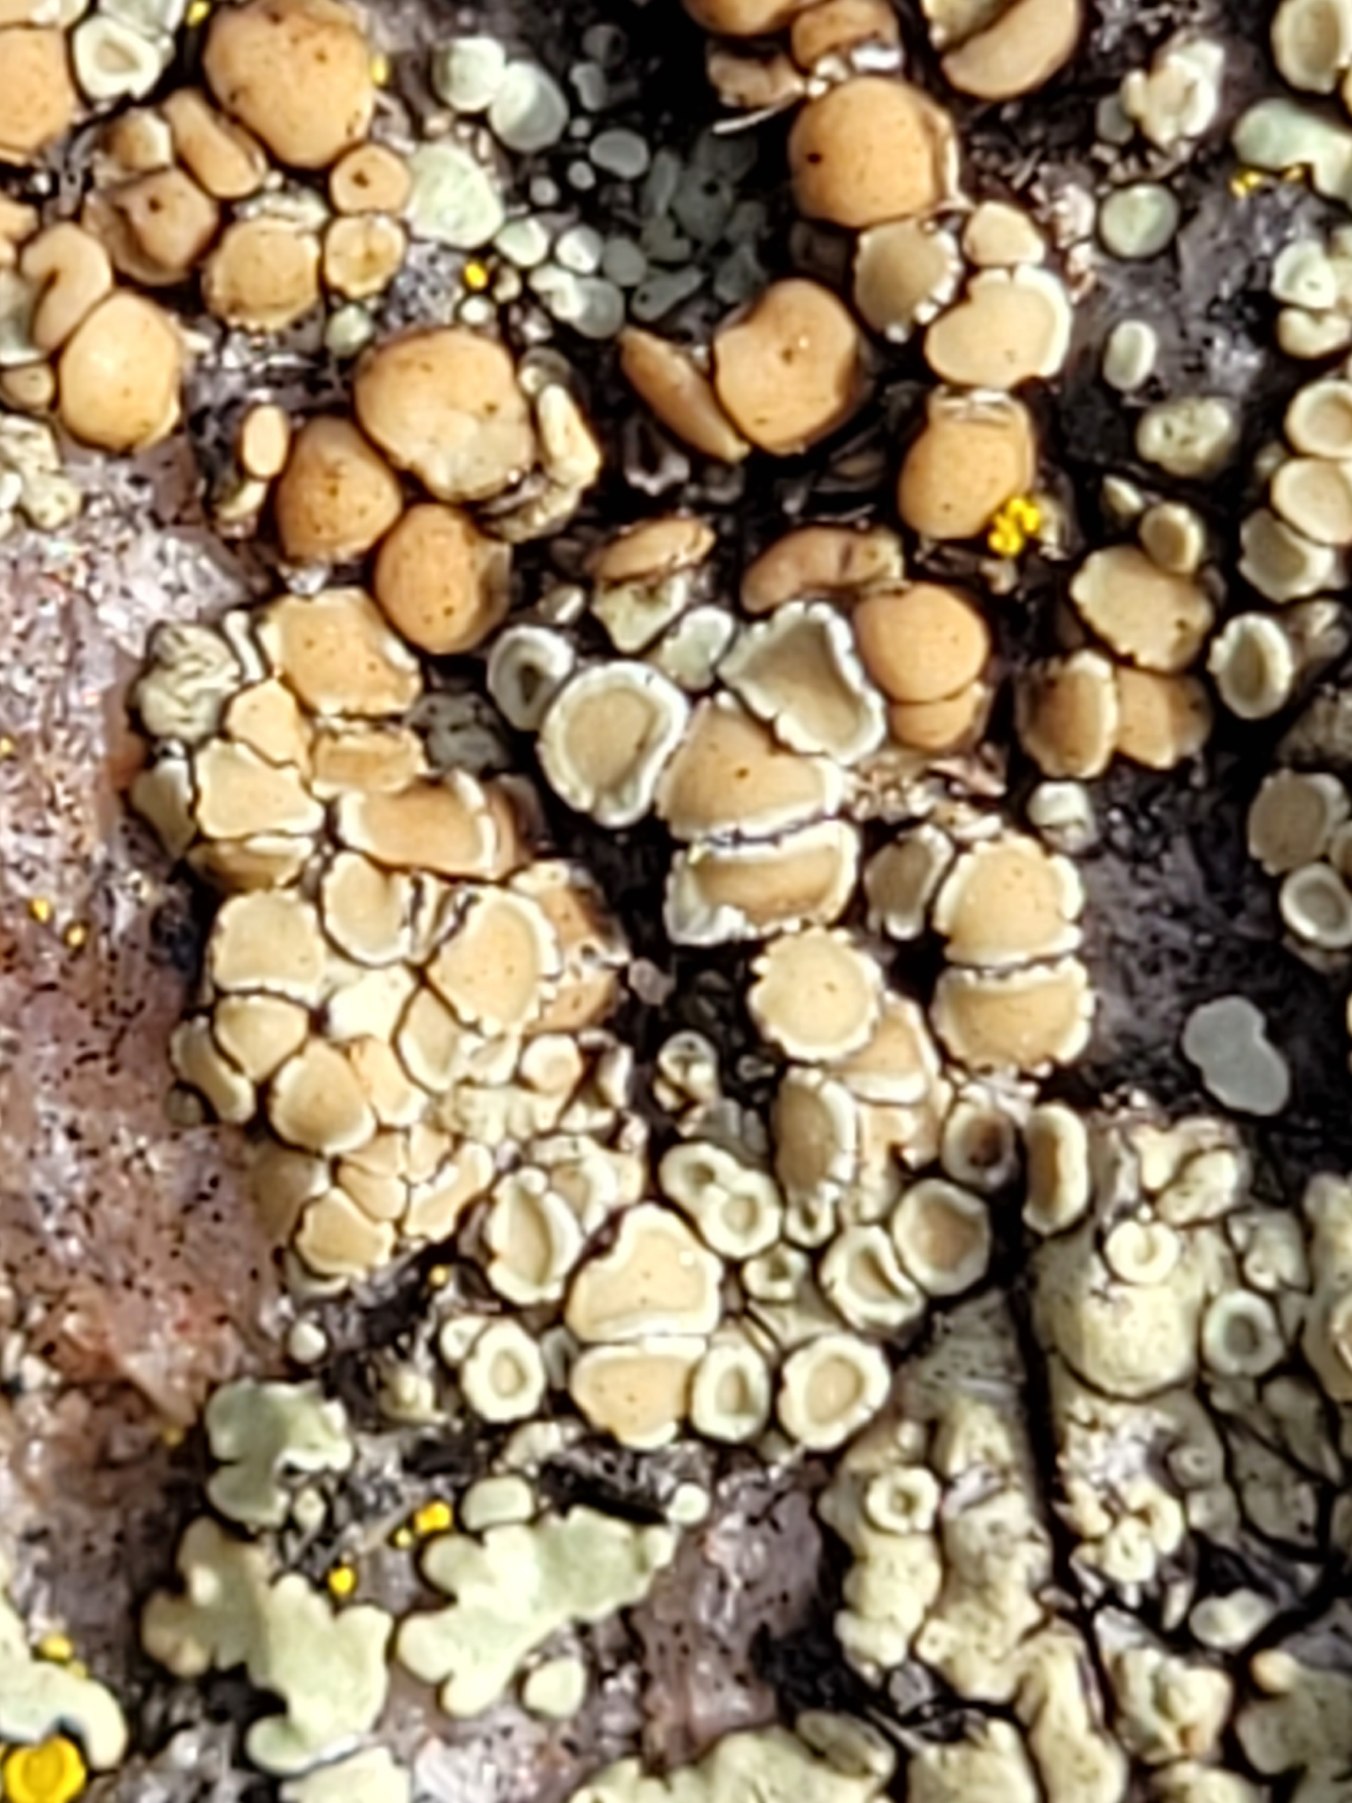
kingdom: Fungi
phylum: Ascomycota
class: Lecanoromycetes
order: Lecanorales
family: Lecanoraceae
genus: Protoparmeliopsis
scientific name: Protoparmeliopsis muralis
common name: Randfliget kantskivelav
